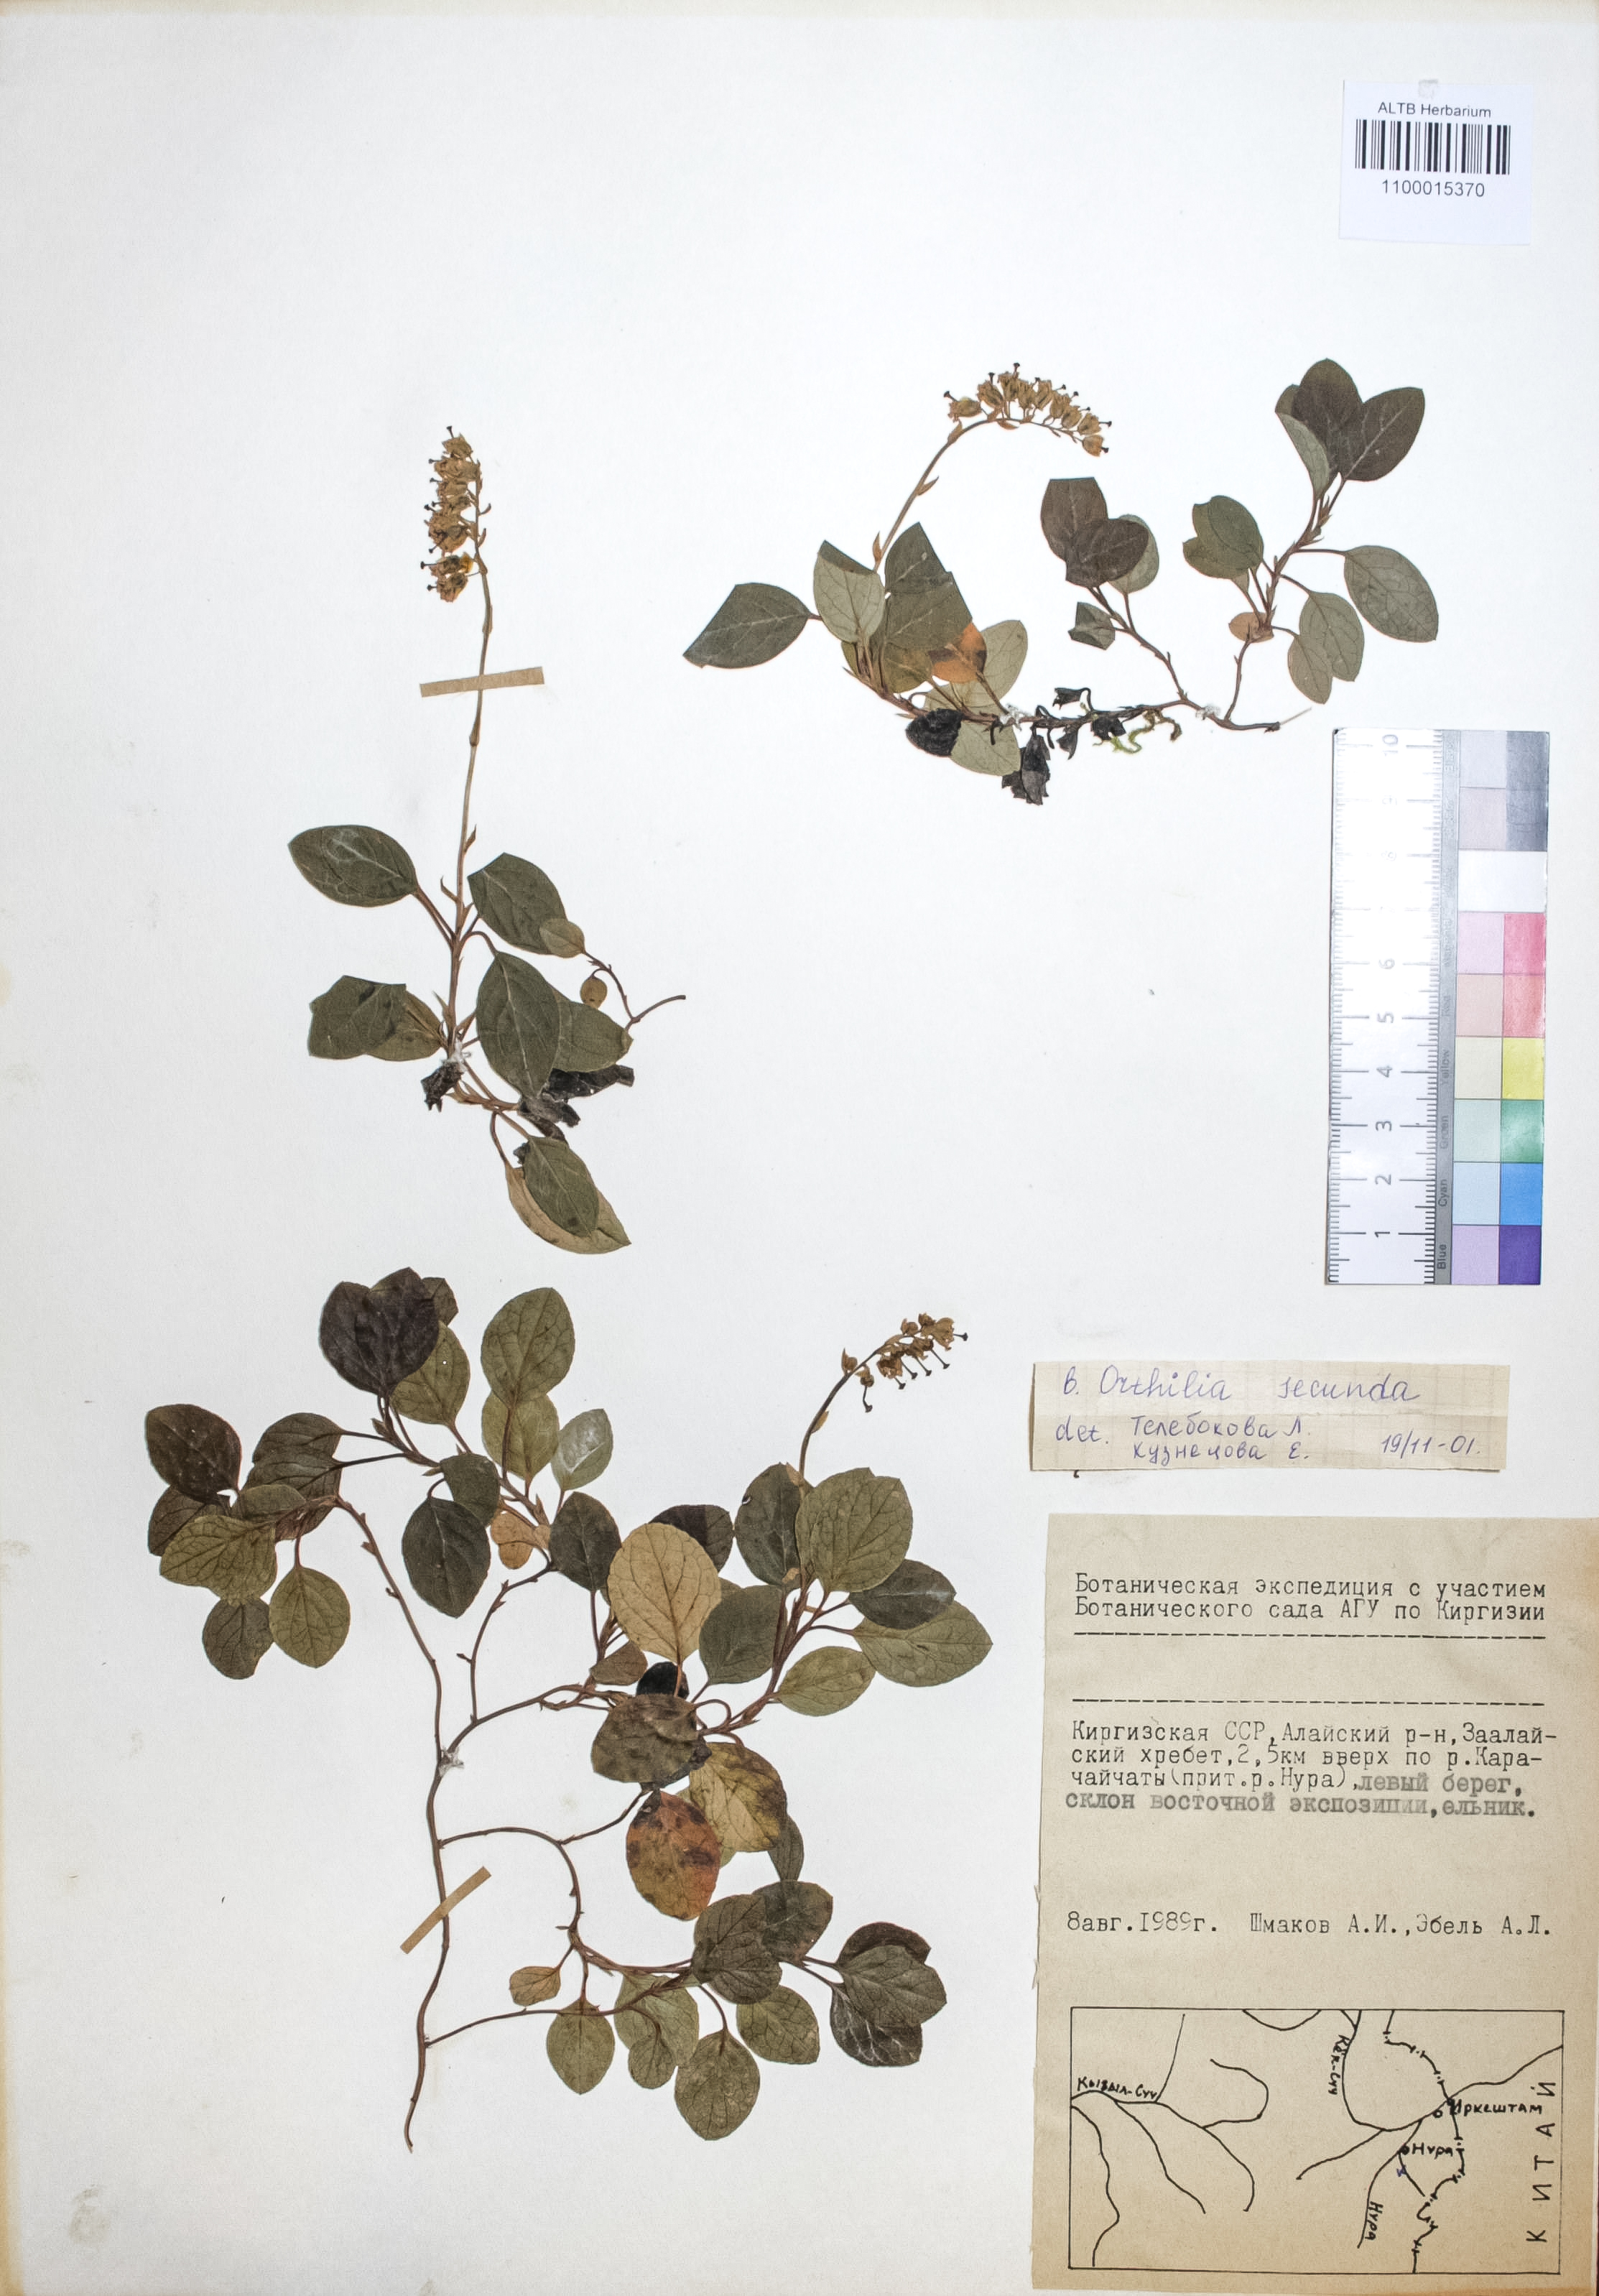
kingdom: Plantae
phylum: Tracheophyta
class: Magnoliopsida
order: Ericales
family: Ericaceae
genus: Orthilia
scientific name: Orthilia secunda
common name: One-sided orthilia
